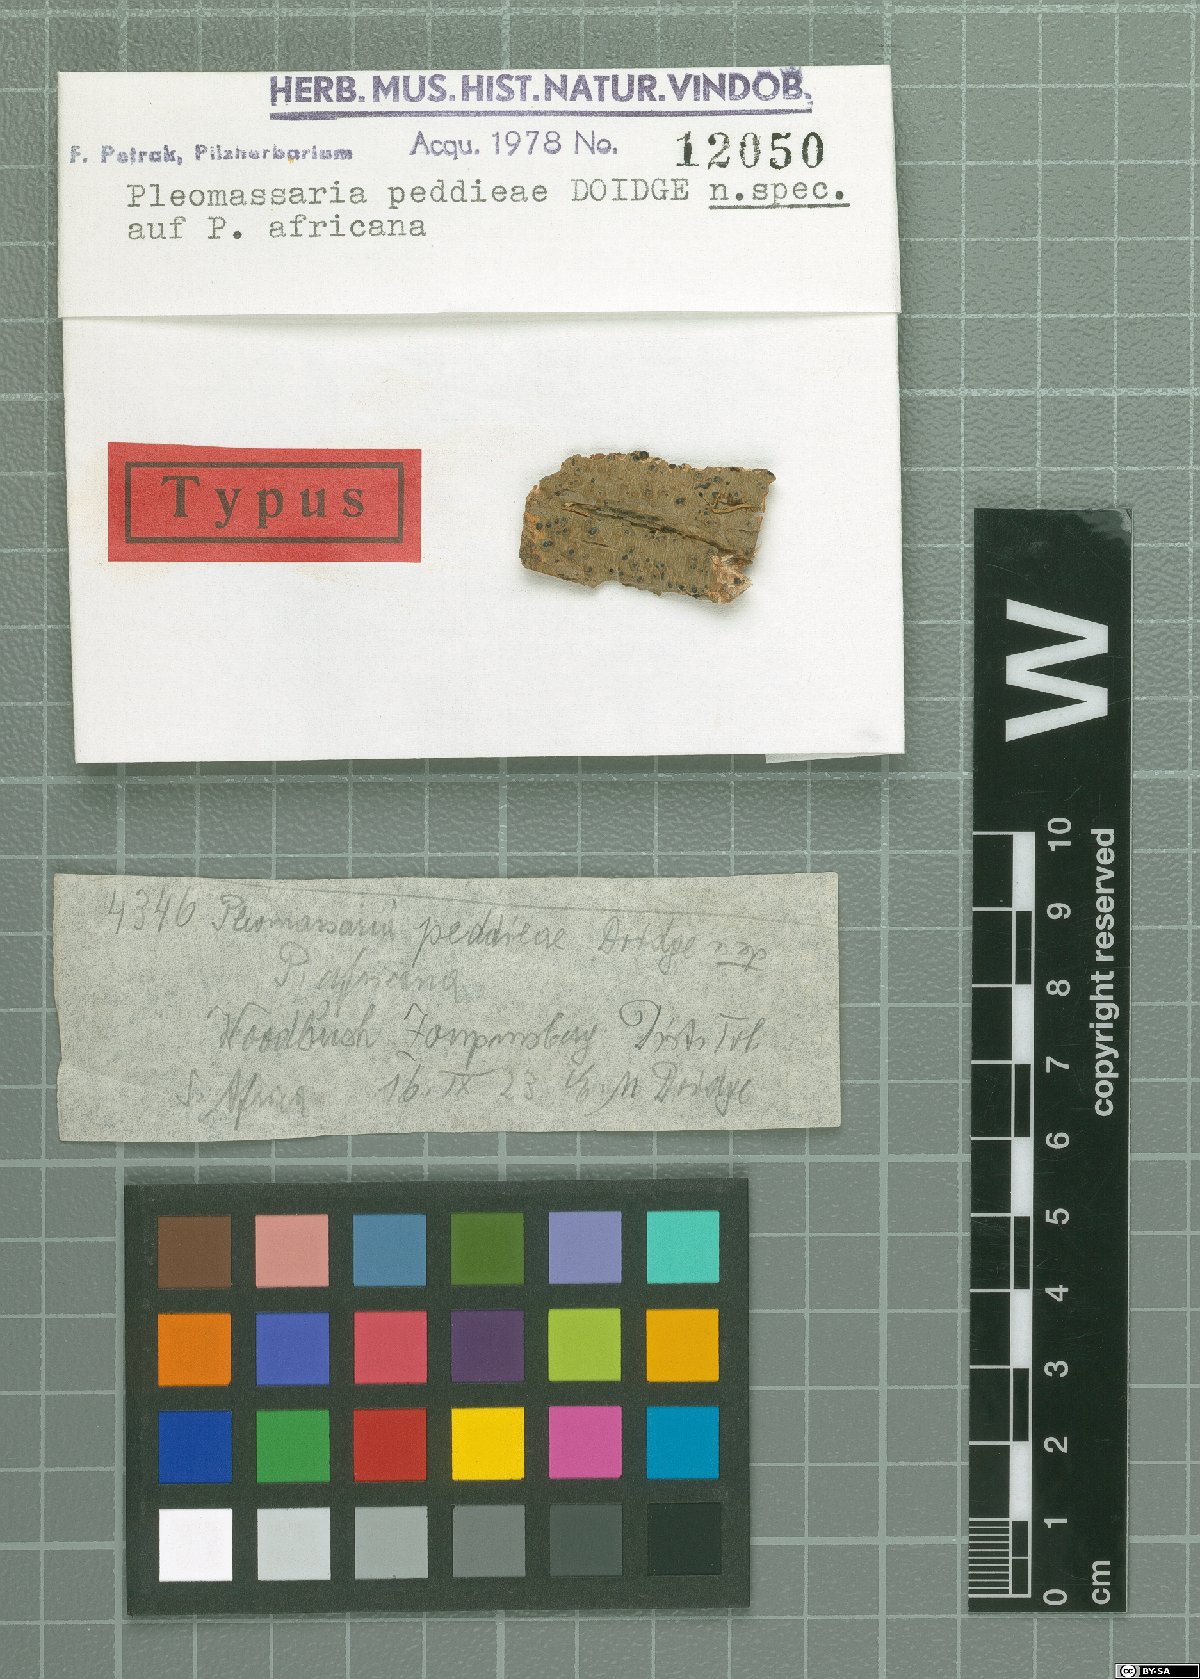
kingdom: Fungi
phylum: Ascomycota
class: Dothideomycetes
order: Pleosporales
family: Pleomassariaceae
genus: Pleomassaria
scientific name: Pleomassaria
